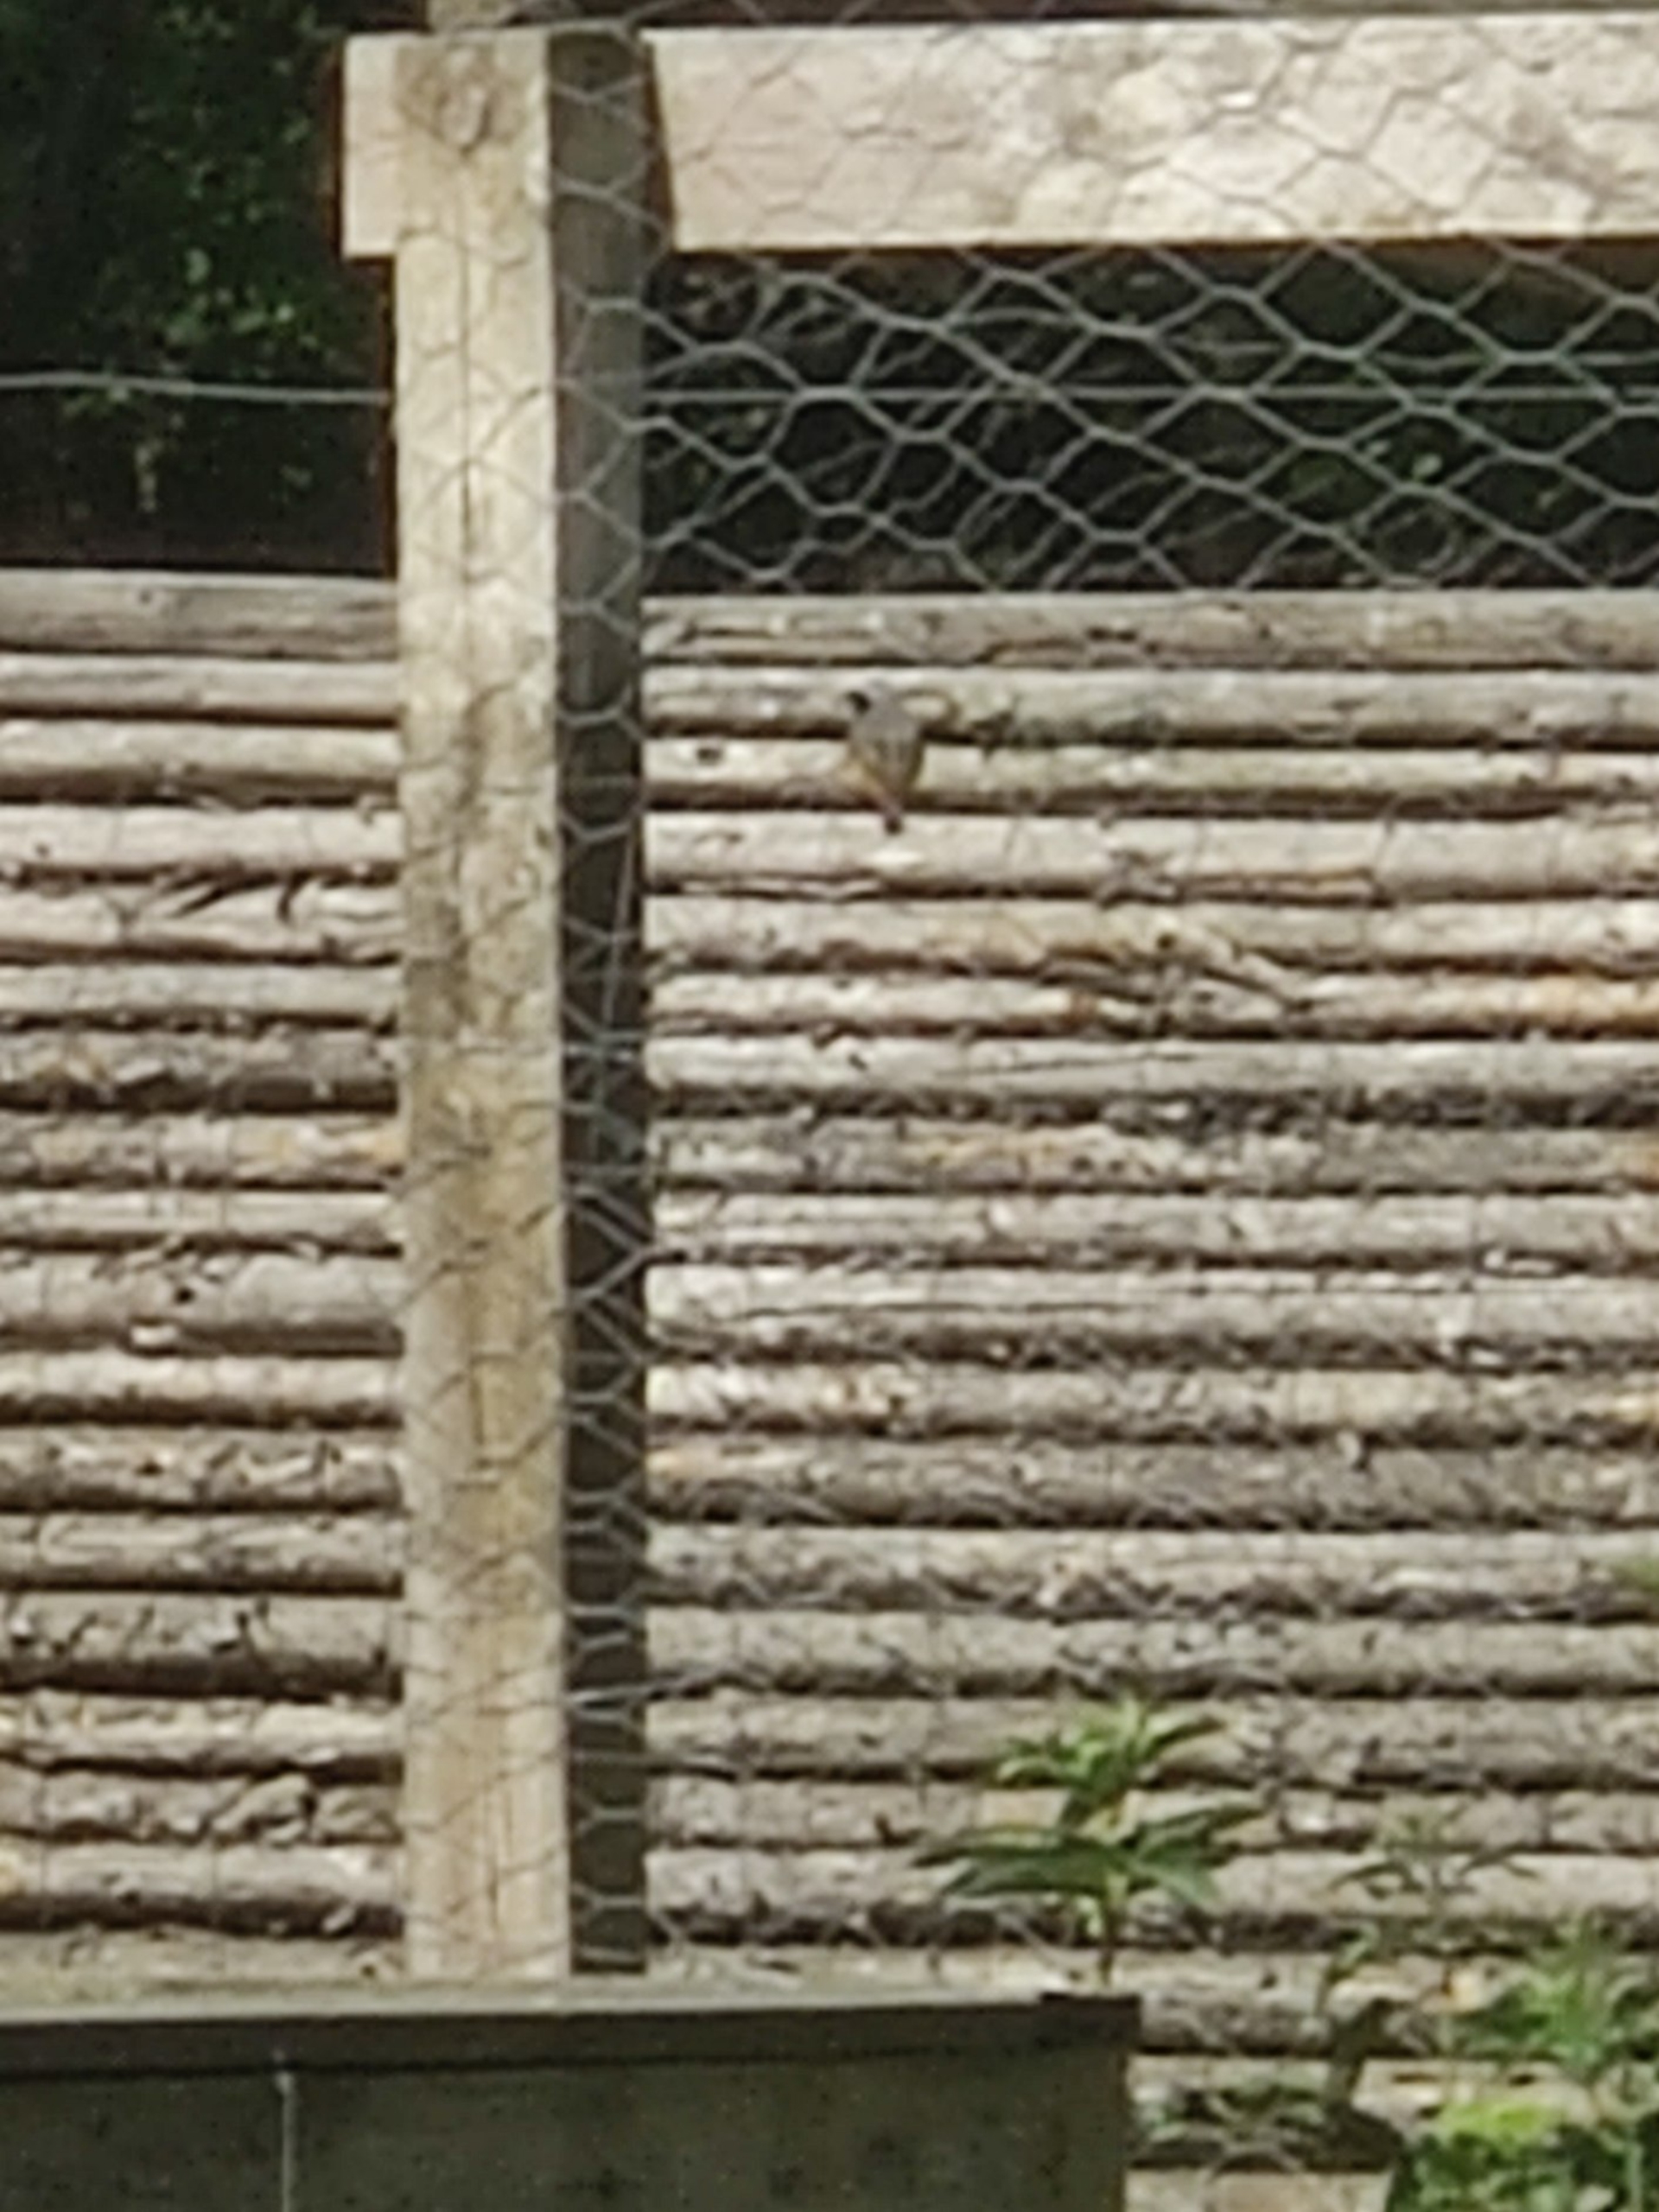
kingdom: Animalia
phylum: Chordata
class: Aves
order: Passeriformes
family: Muscicapidae
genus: Phoenicurus
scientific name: Phoenicurus phoenicurus
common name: Rødstjert
